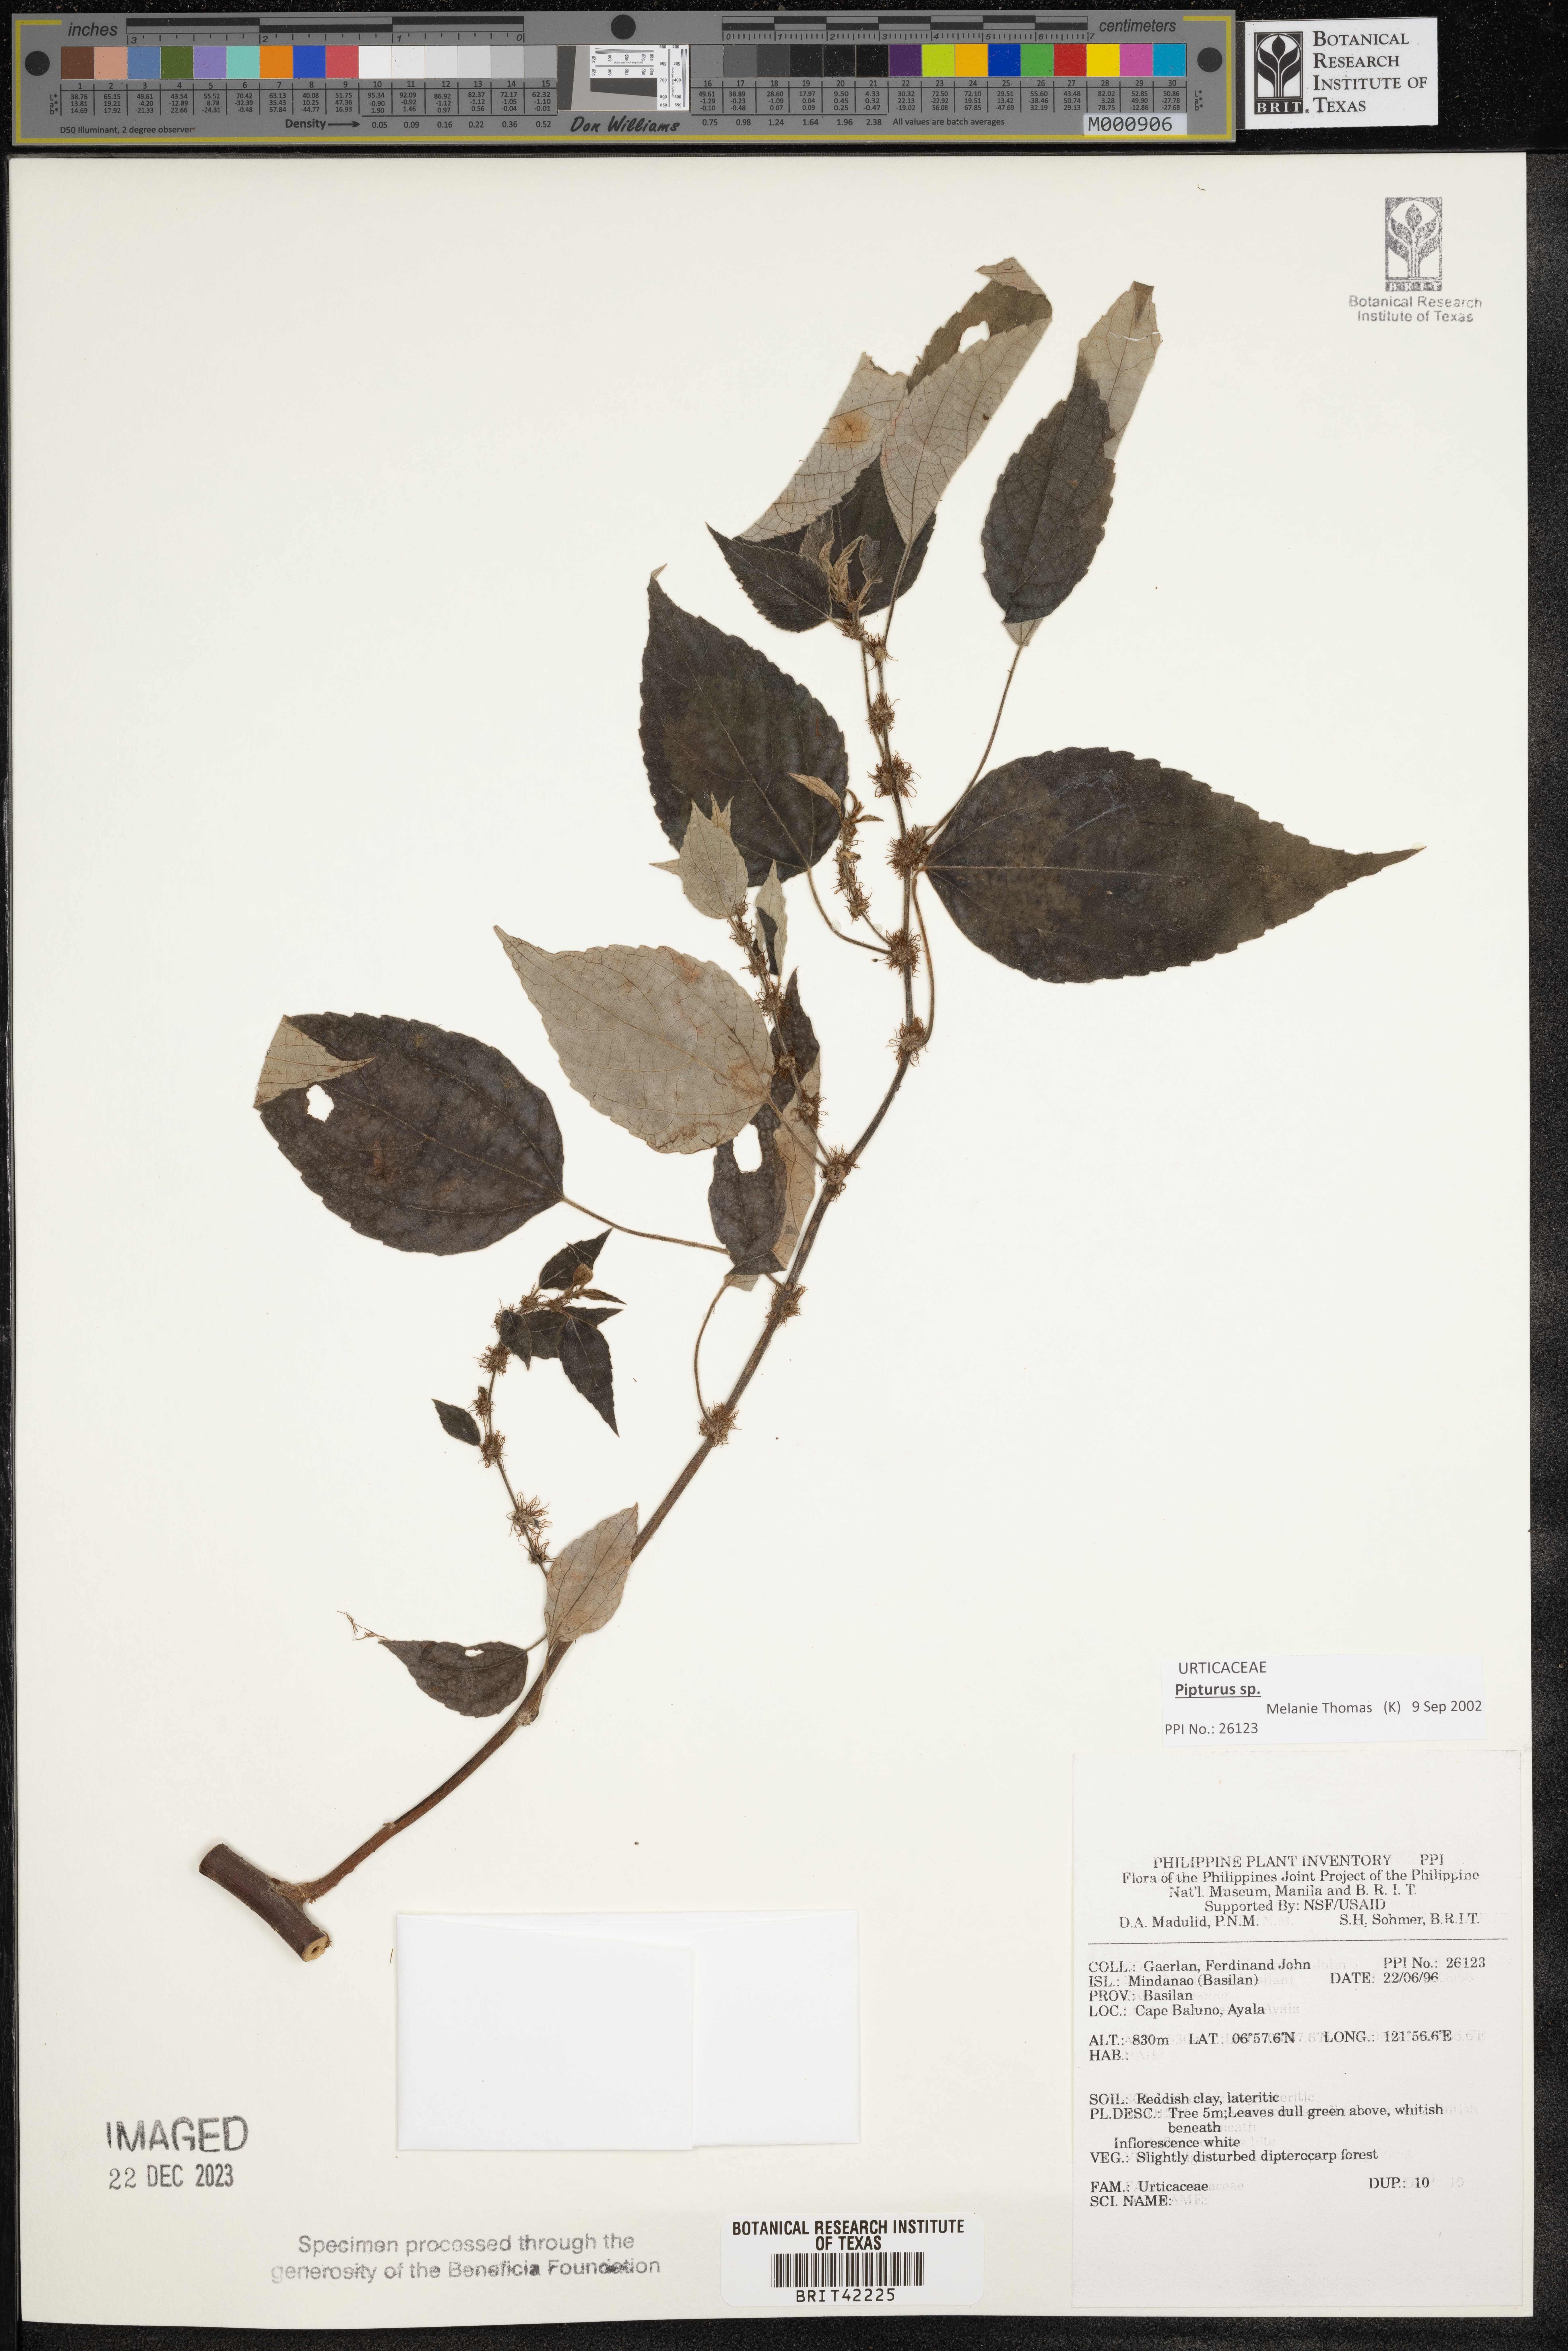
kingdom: Plantae
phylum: Tracheophyta
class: Magnoliopsida
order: Rosales
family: Urticaceae
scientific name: Urticaceae
